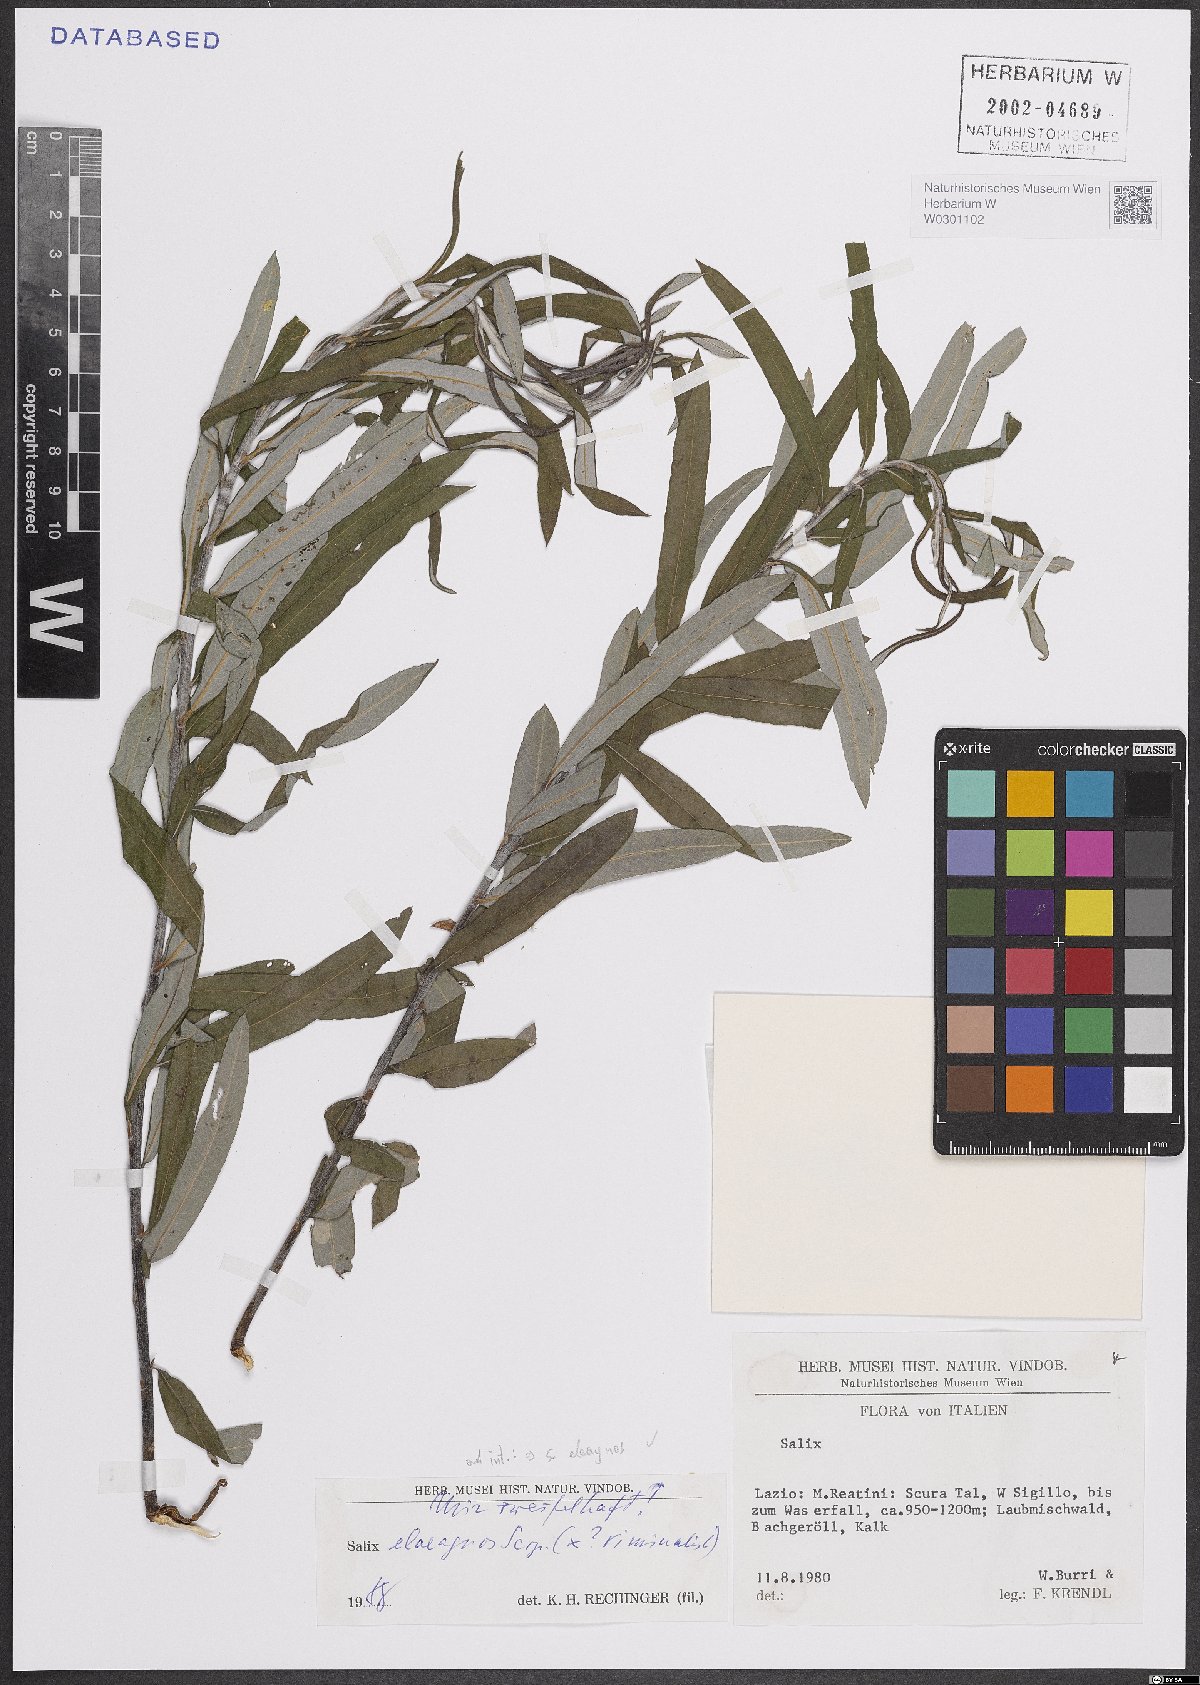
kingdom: Plantae
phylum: Tracheophyta
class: Magnoliopsida
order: Malpighiales
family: Salicaceae
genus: Salix
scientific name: Salix eleagnos
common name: Elaeagnus willow
